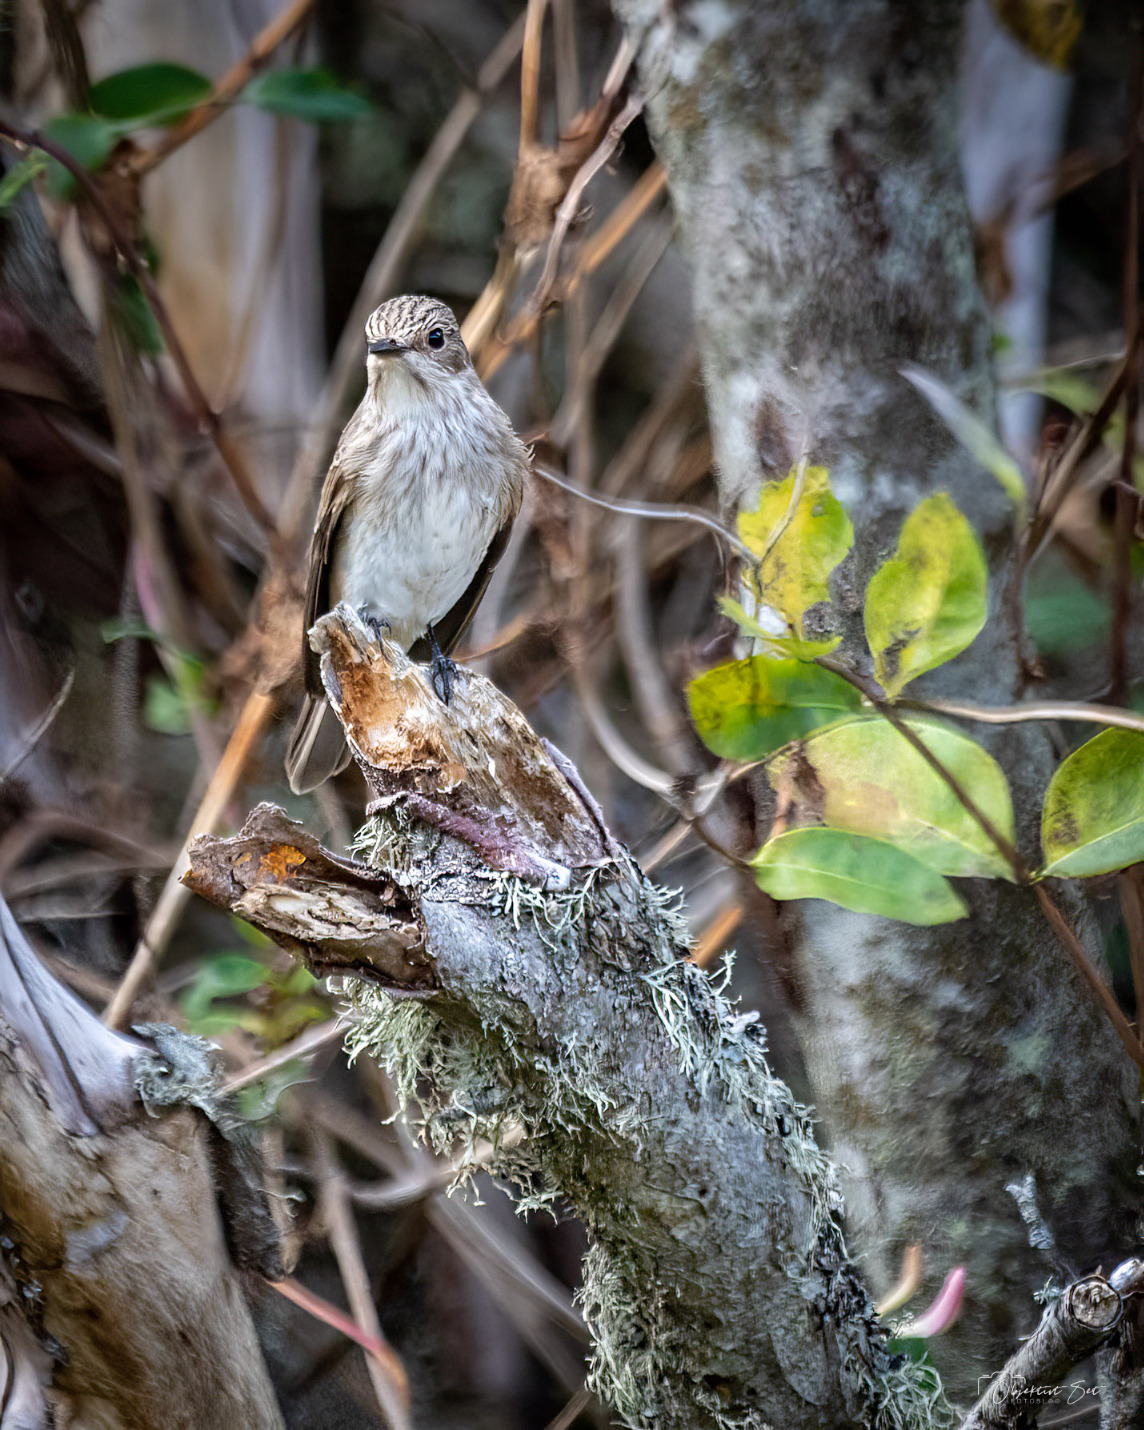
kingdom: Animalia
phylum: Chordata
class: Aves
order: Passeriformes
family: Muscicapidae
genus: Muscicapa
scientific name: Muscicapa striata
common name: Grå fluesnapper
